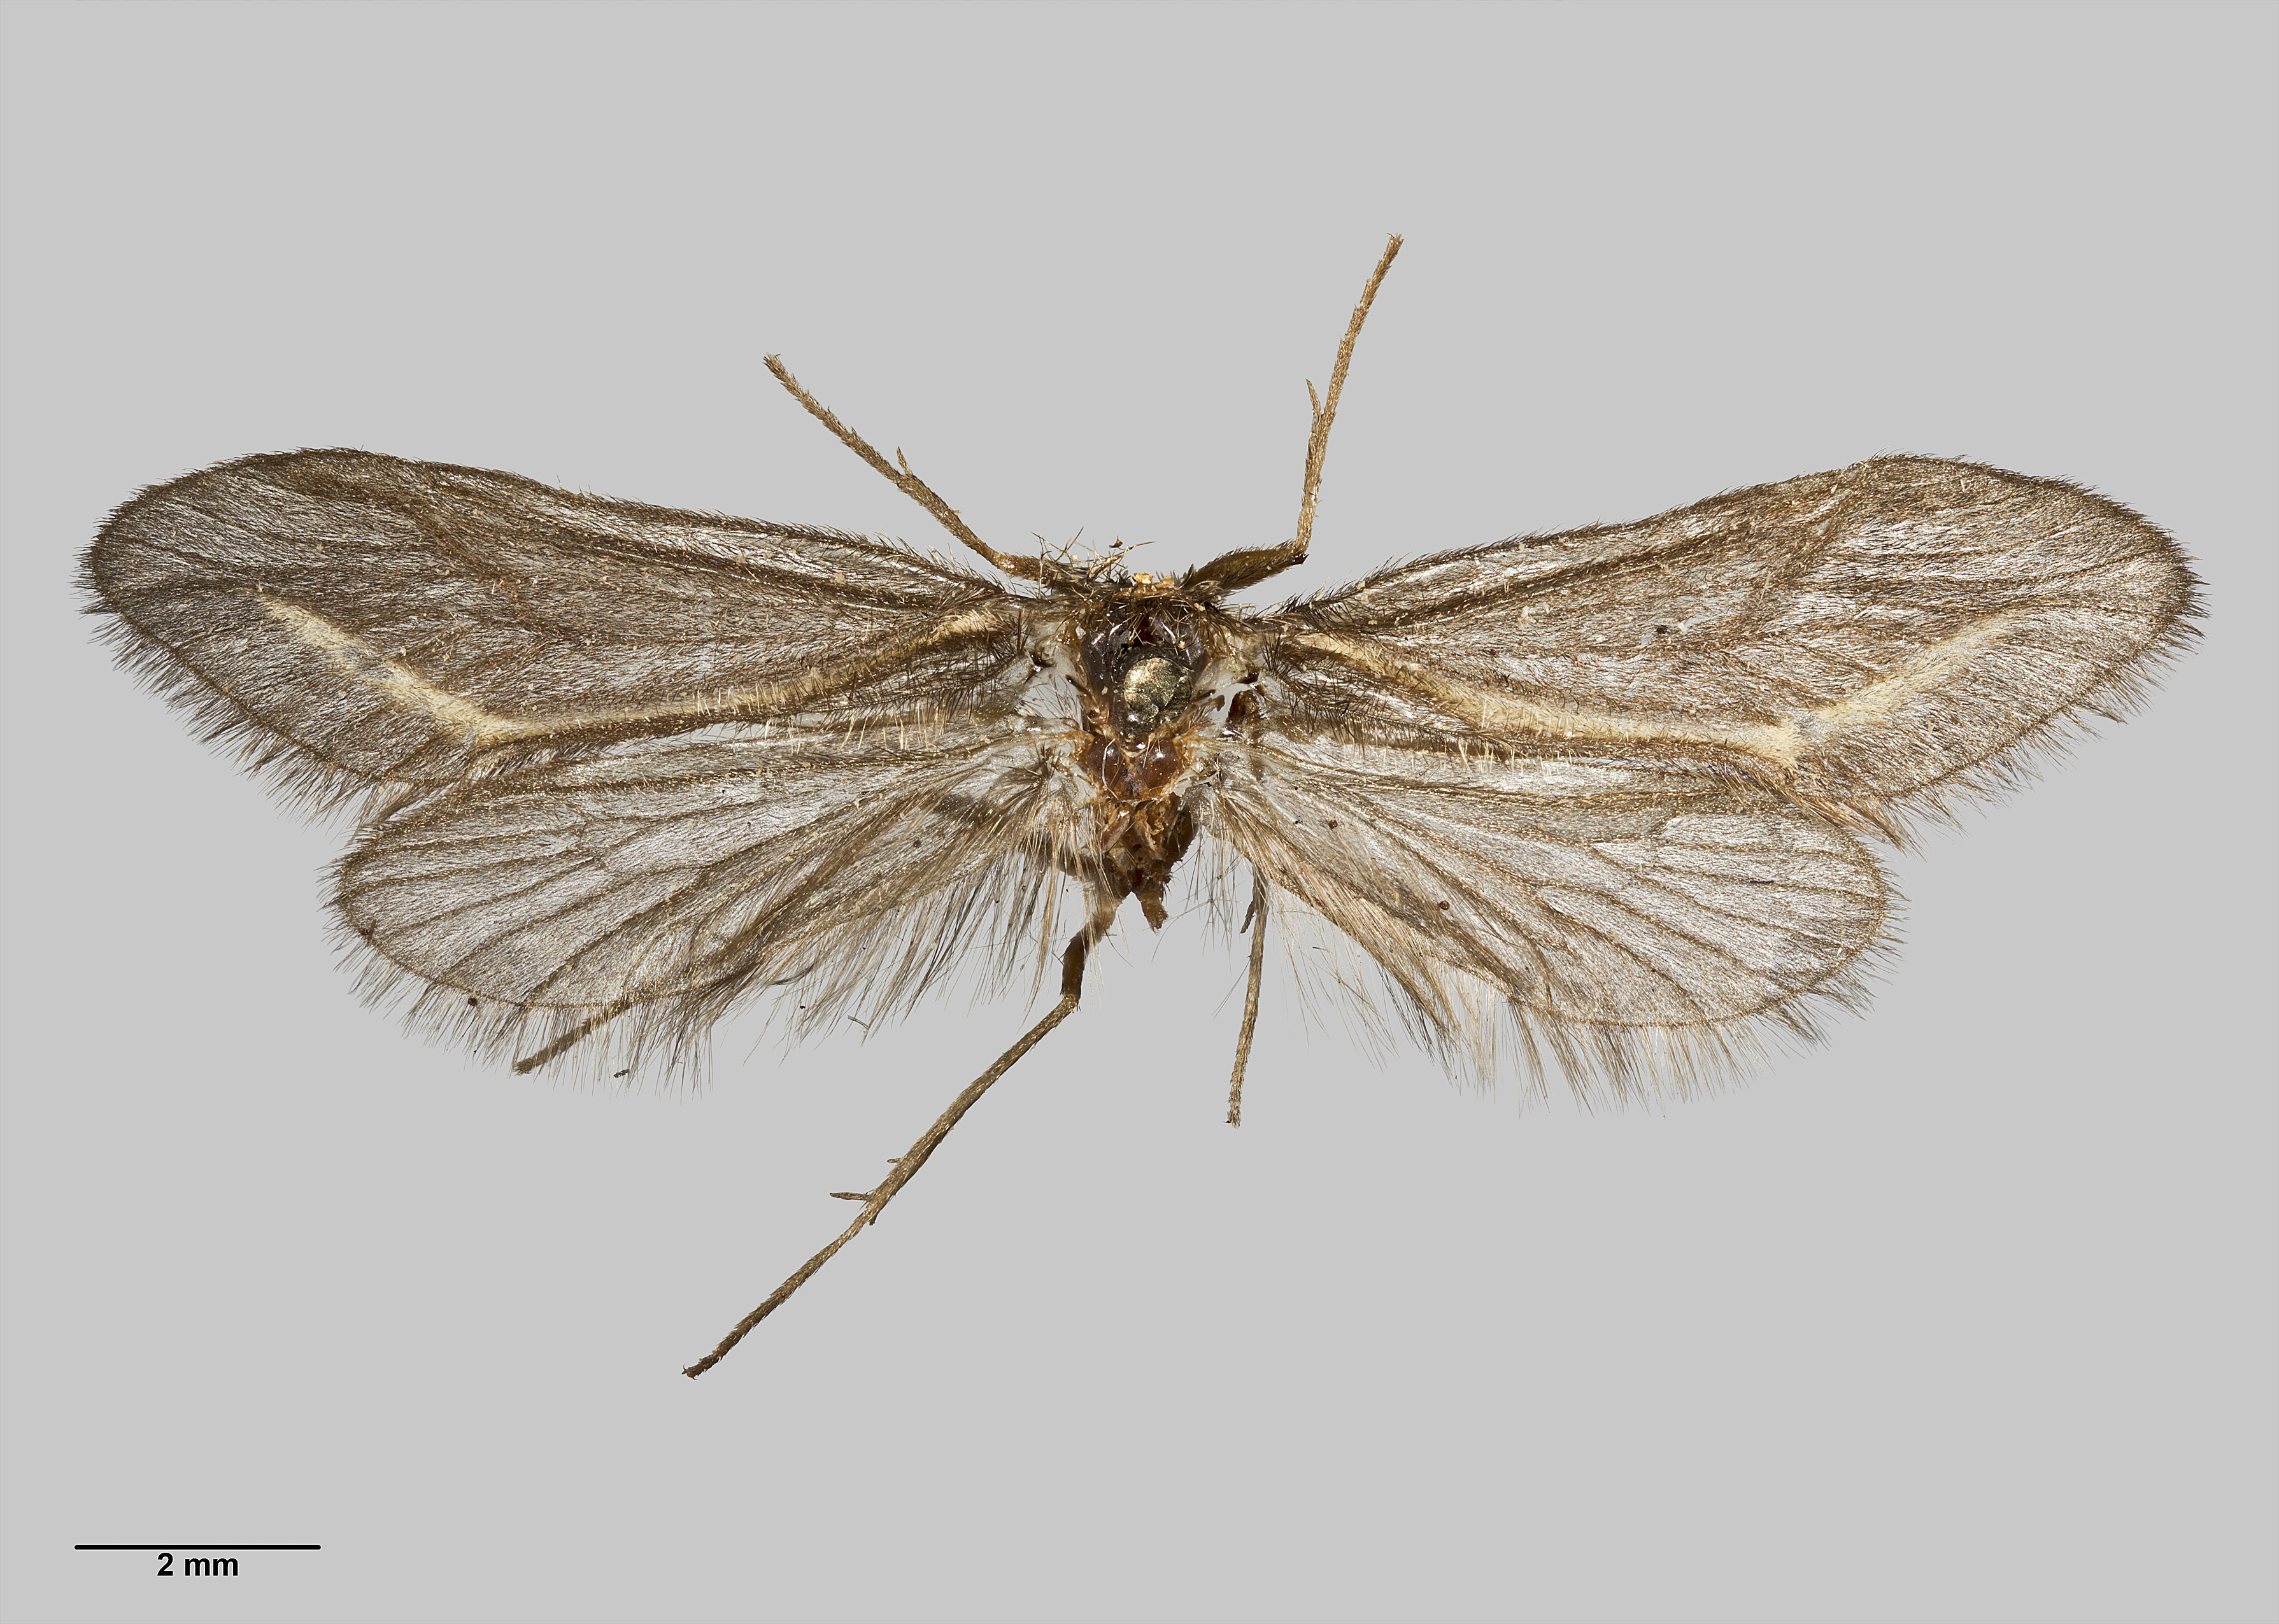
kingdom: Animalia
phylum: Arthropoda
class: Insecta
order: Trichoptera
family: Conoesucidae
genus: Olinga
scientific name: Olinga fumosa
